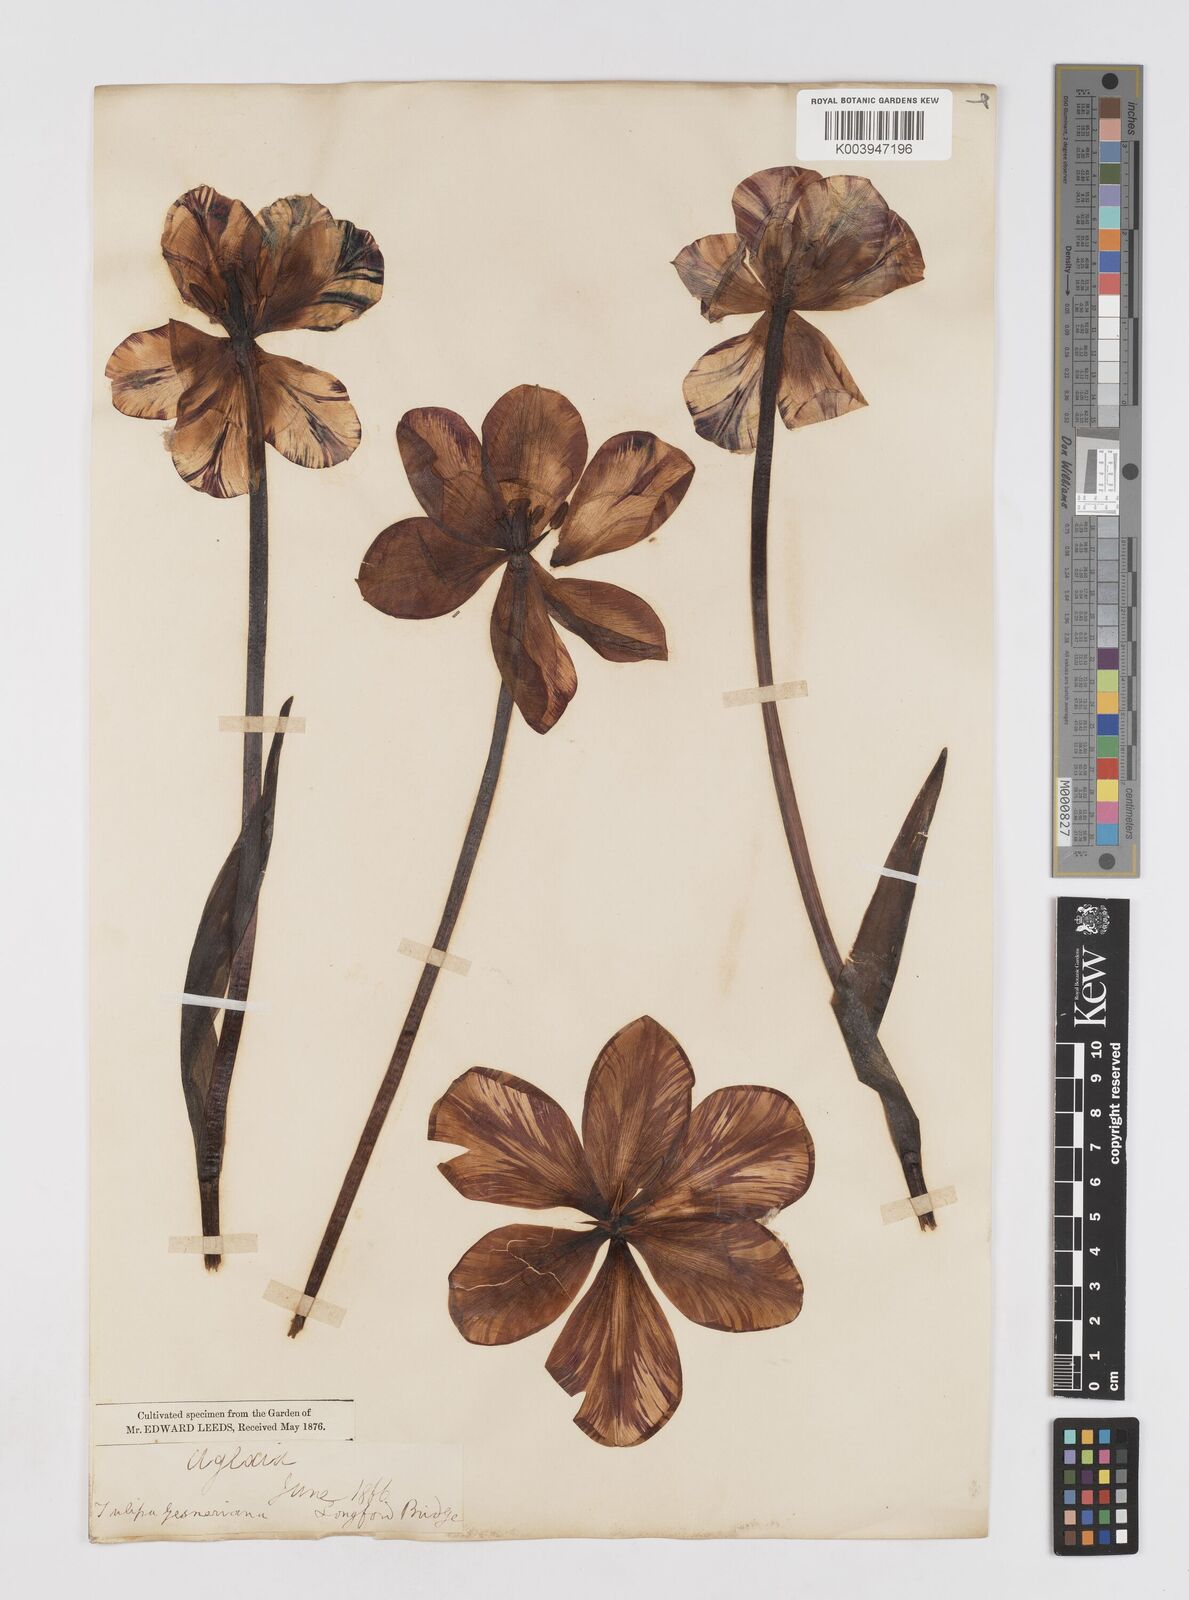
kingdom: Plantae
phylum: Tracheophyta
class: Liliopsida
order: Liliales
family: Liliaceae
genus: Tulipa
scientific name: Tulipa gesneriana
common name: Garden tulip
